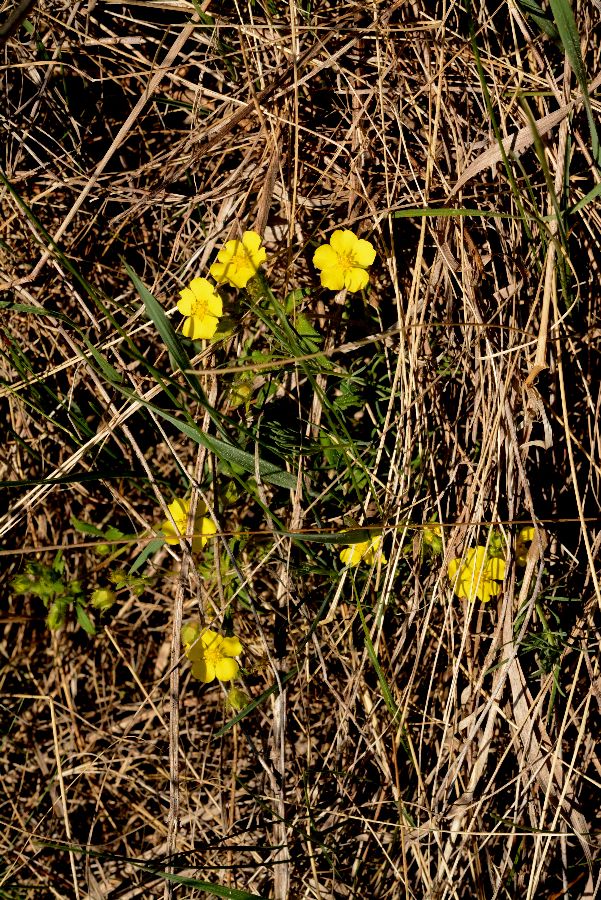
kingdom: Plantae
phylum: Tracheophyta
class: Magnoliopsida
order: Rosales
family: Rosaceae
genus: Potentilla
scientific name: Potentilla heptaphylla
